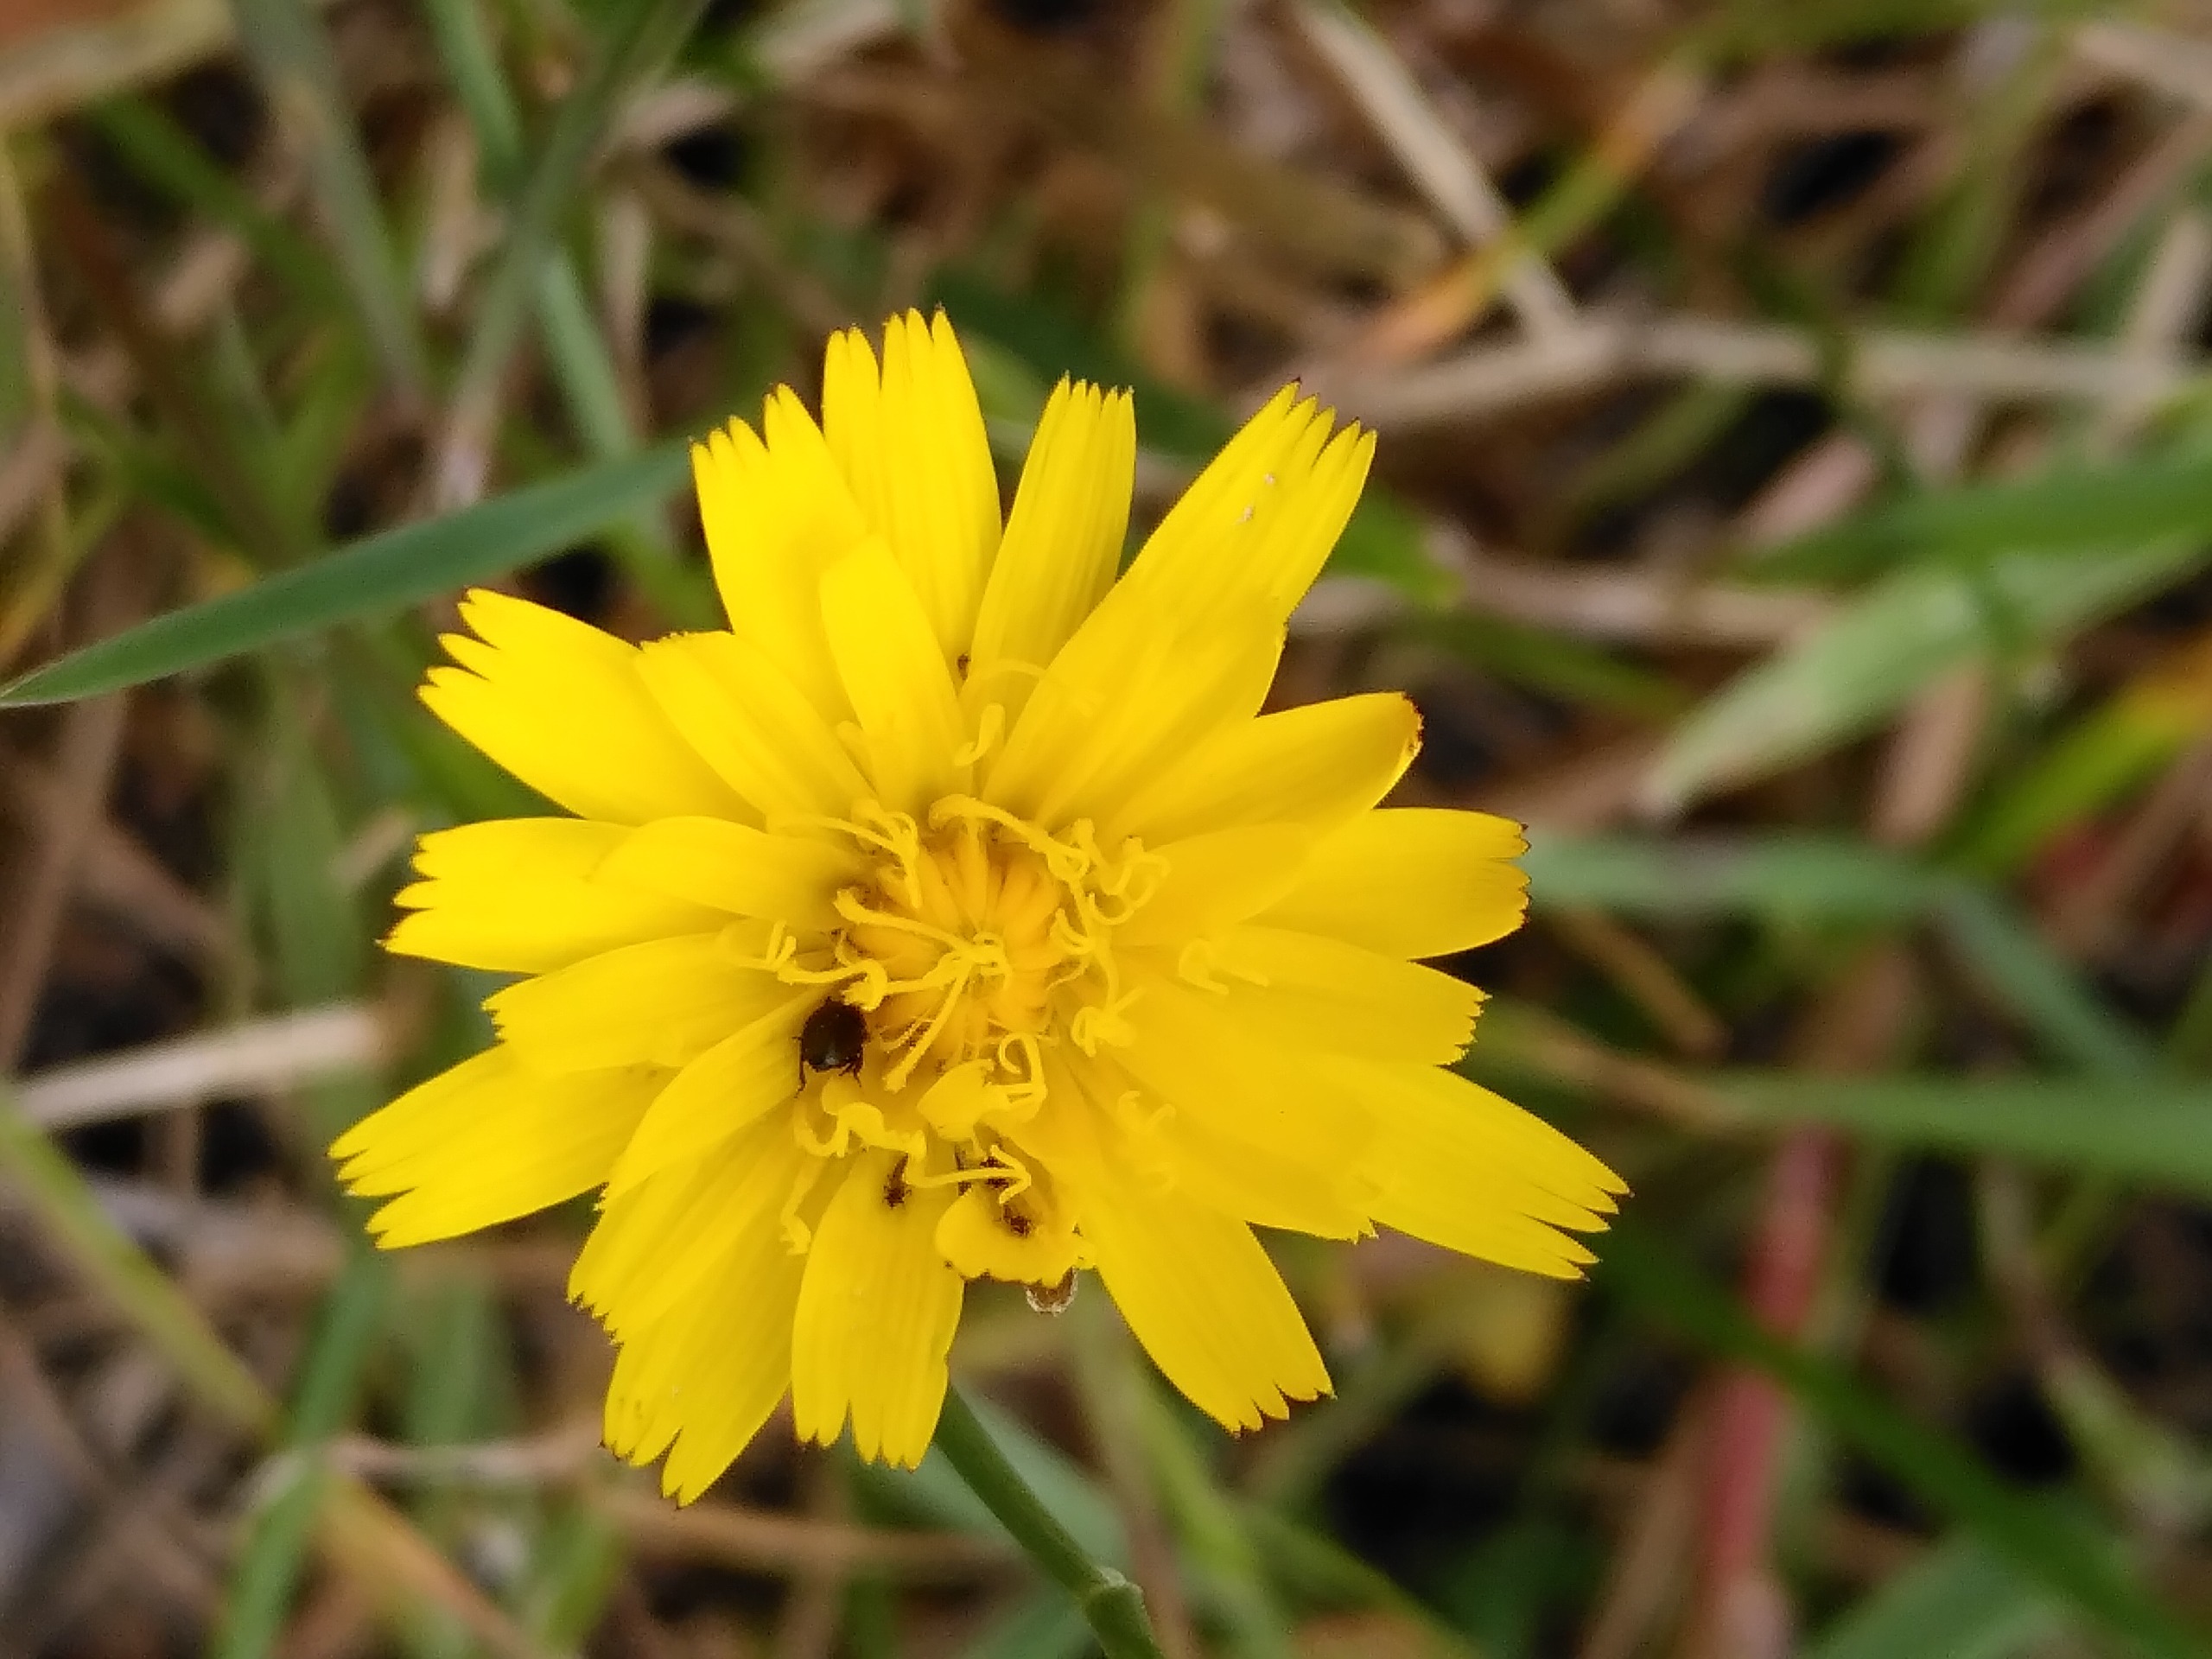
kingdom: Plantae
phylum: Tracheophyta
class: Magnoliopsida
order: Asterales
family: Asteraceae
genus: Hypochaeris
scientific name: Hypochaeris radicata
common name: Almindelig kongepen
